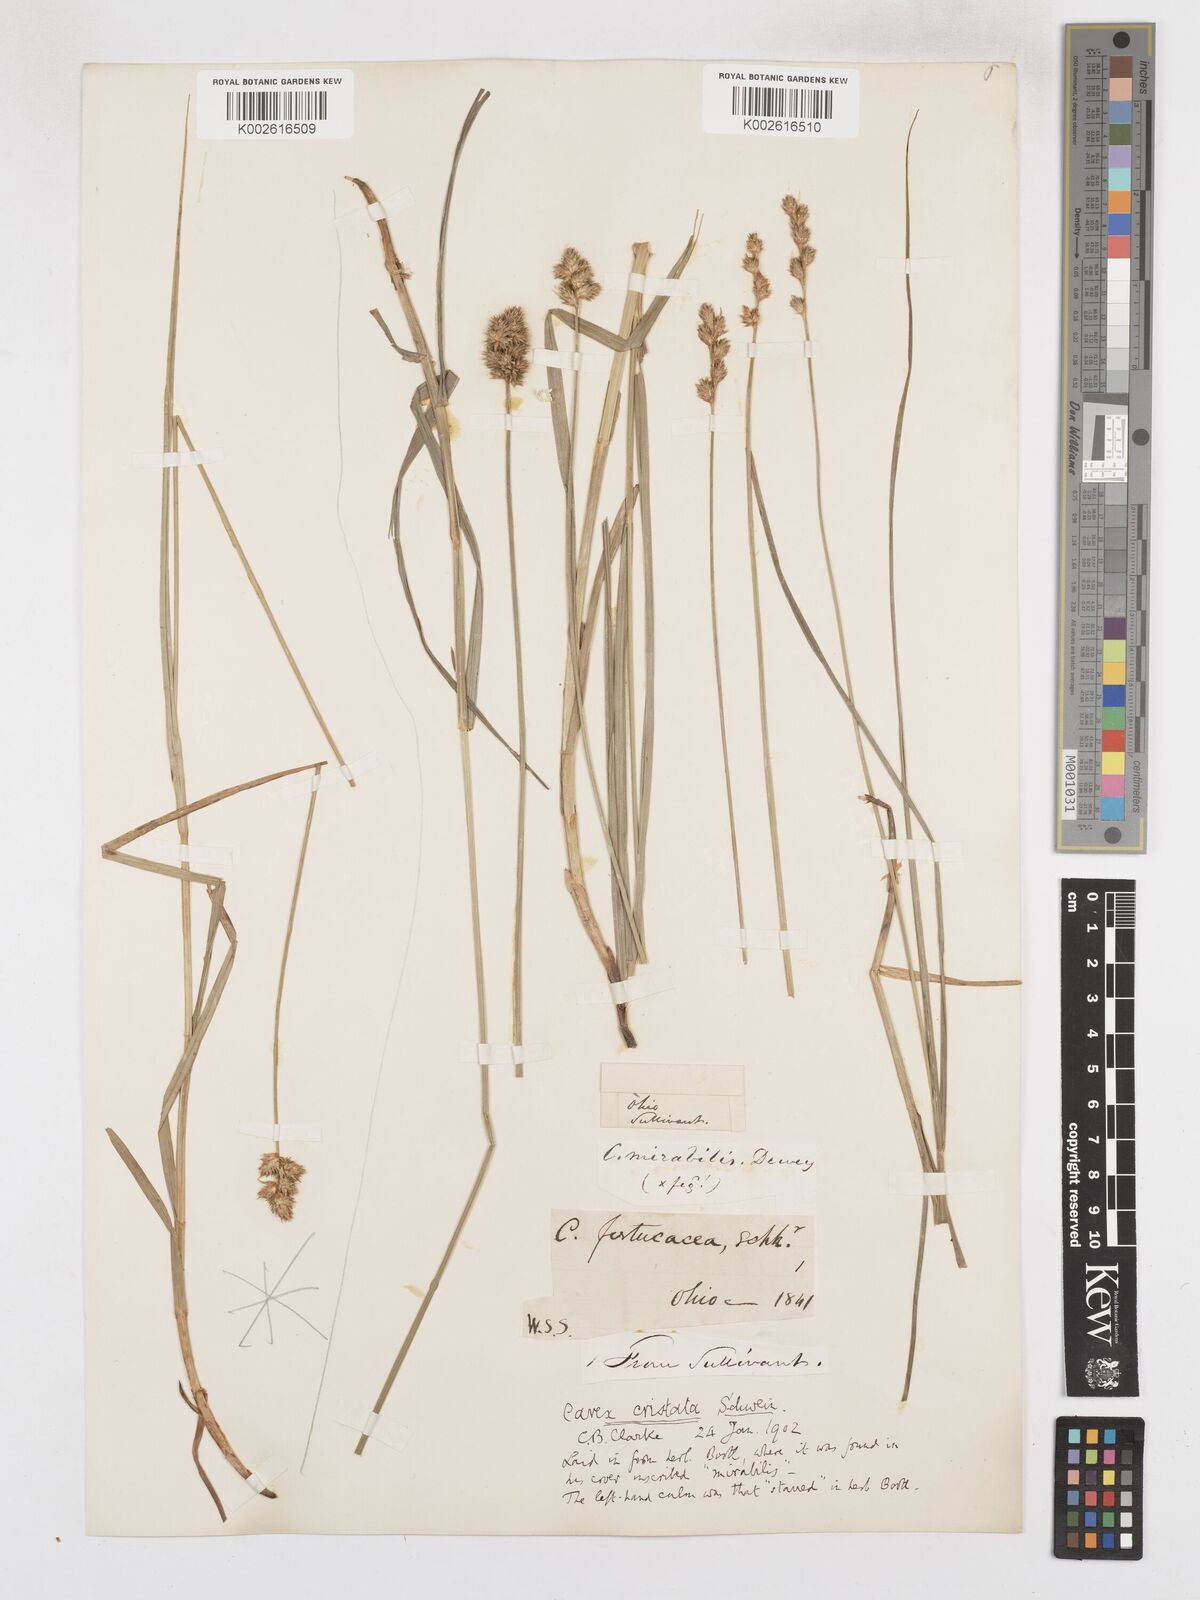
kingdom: Plantae
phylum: Tracheophyta
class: Liliopsida
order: Poales
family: Cyperaceae
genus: Carex
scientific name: Carex cristatella
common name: Crested oval sedge
